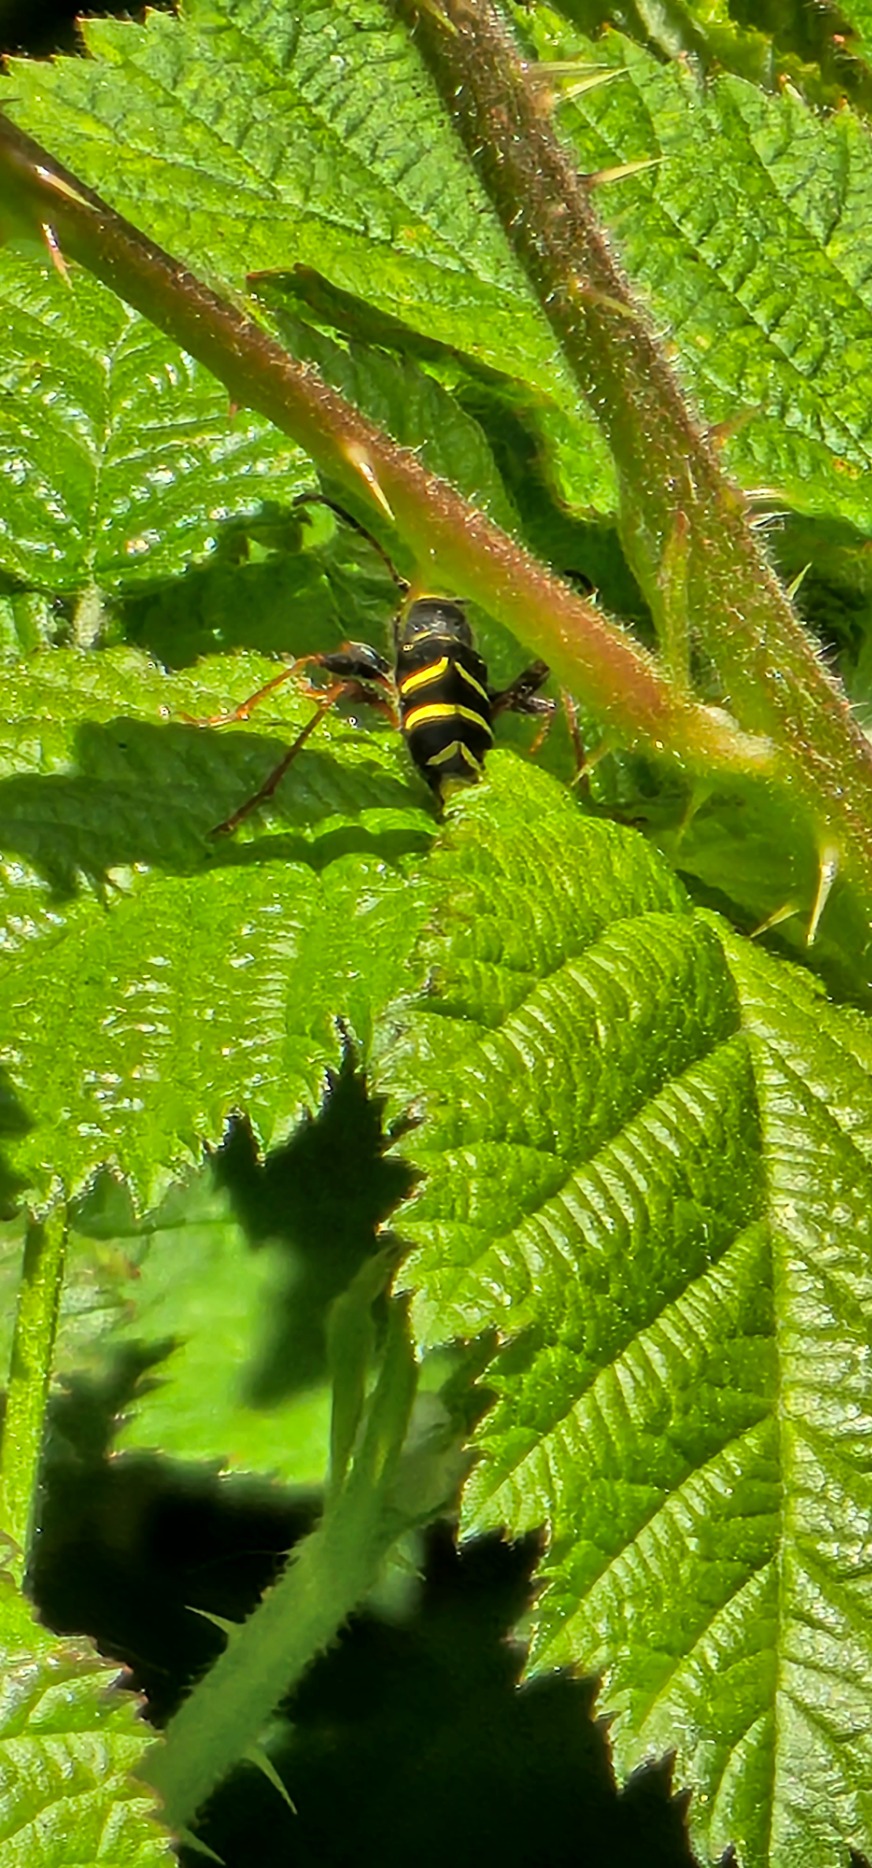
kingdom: Animalia
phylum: Arthropoda
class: Insecta
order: Coleoptera
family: Cerambycidae
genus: Clytus
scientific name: Clytus arietis
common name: Lille hvepsebuk
